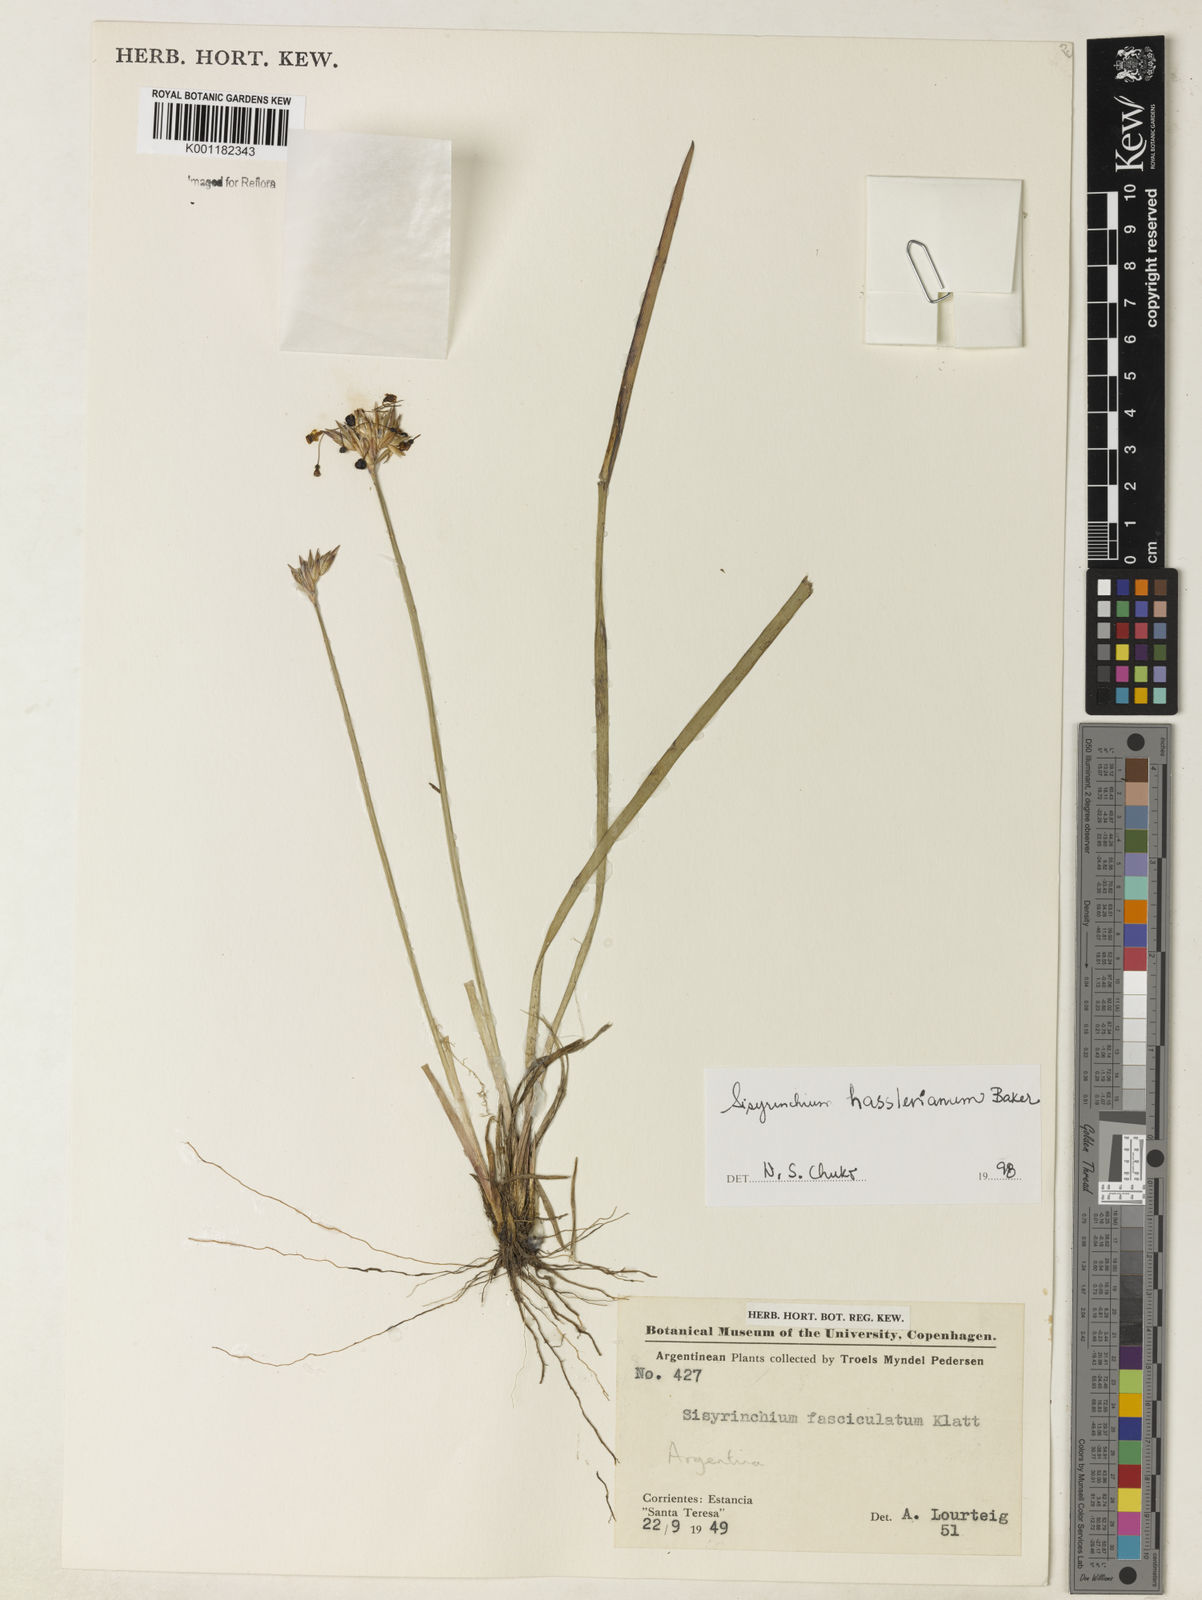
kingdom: Plantae
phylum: Tracheophyta
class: Liliopsida
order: Alismatales
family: Araceae
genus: Thaumatophyllum
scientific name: Thaumatophyllum uliginosum
